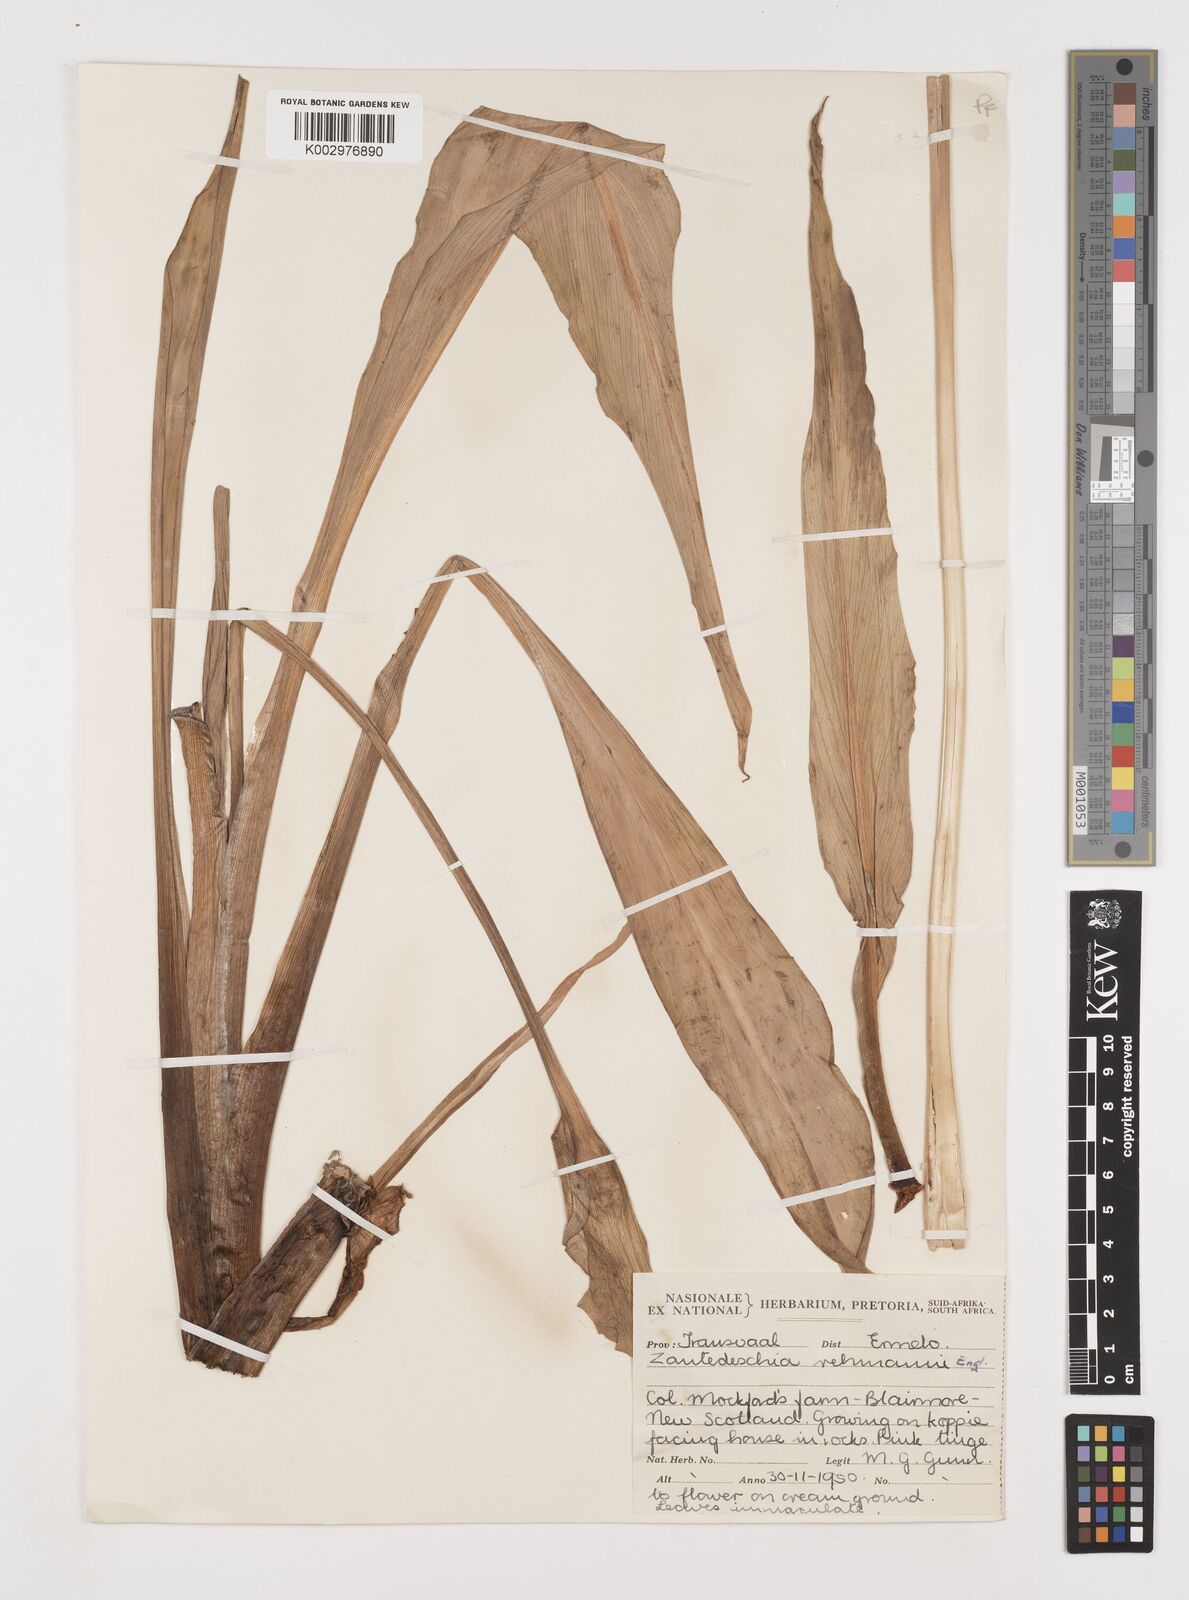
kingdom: Plantae
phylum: Tracheophyta
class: Liliopsida
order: Alismatales
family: Araceae
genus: Zantedeschia
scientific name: Zantedeschia rehmannii
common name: Red calla
